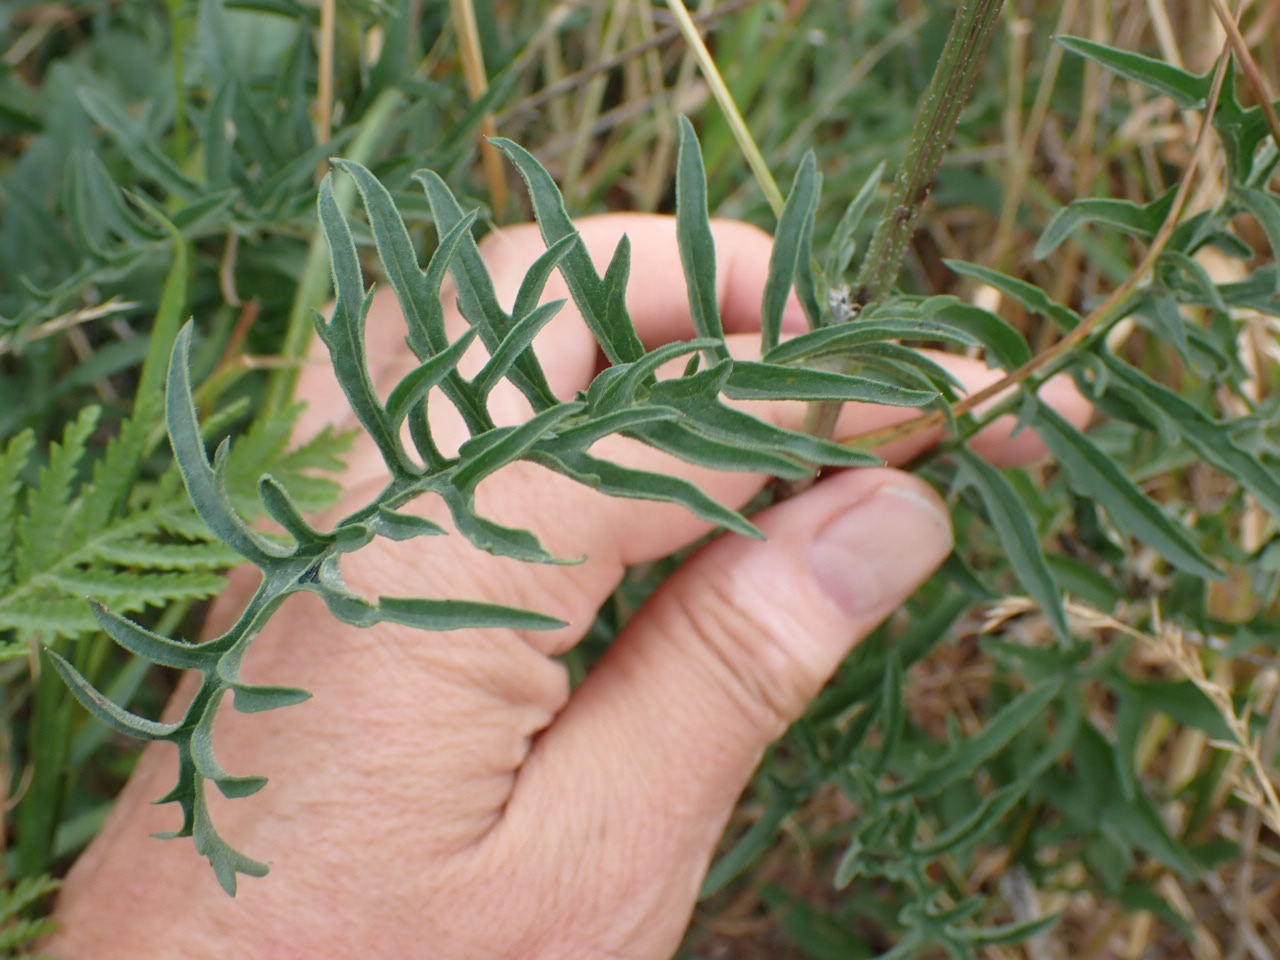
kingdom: Plantae
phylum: Tracheophyta
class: Magnoliopsida
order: Asterales
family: Asteraceae
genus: Centaurea
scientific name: Centaurea scabiosa
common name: Stor knopurt
